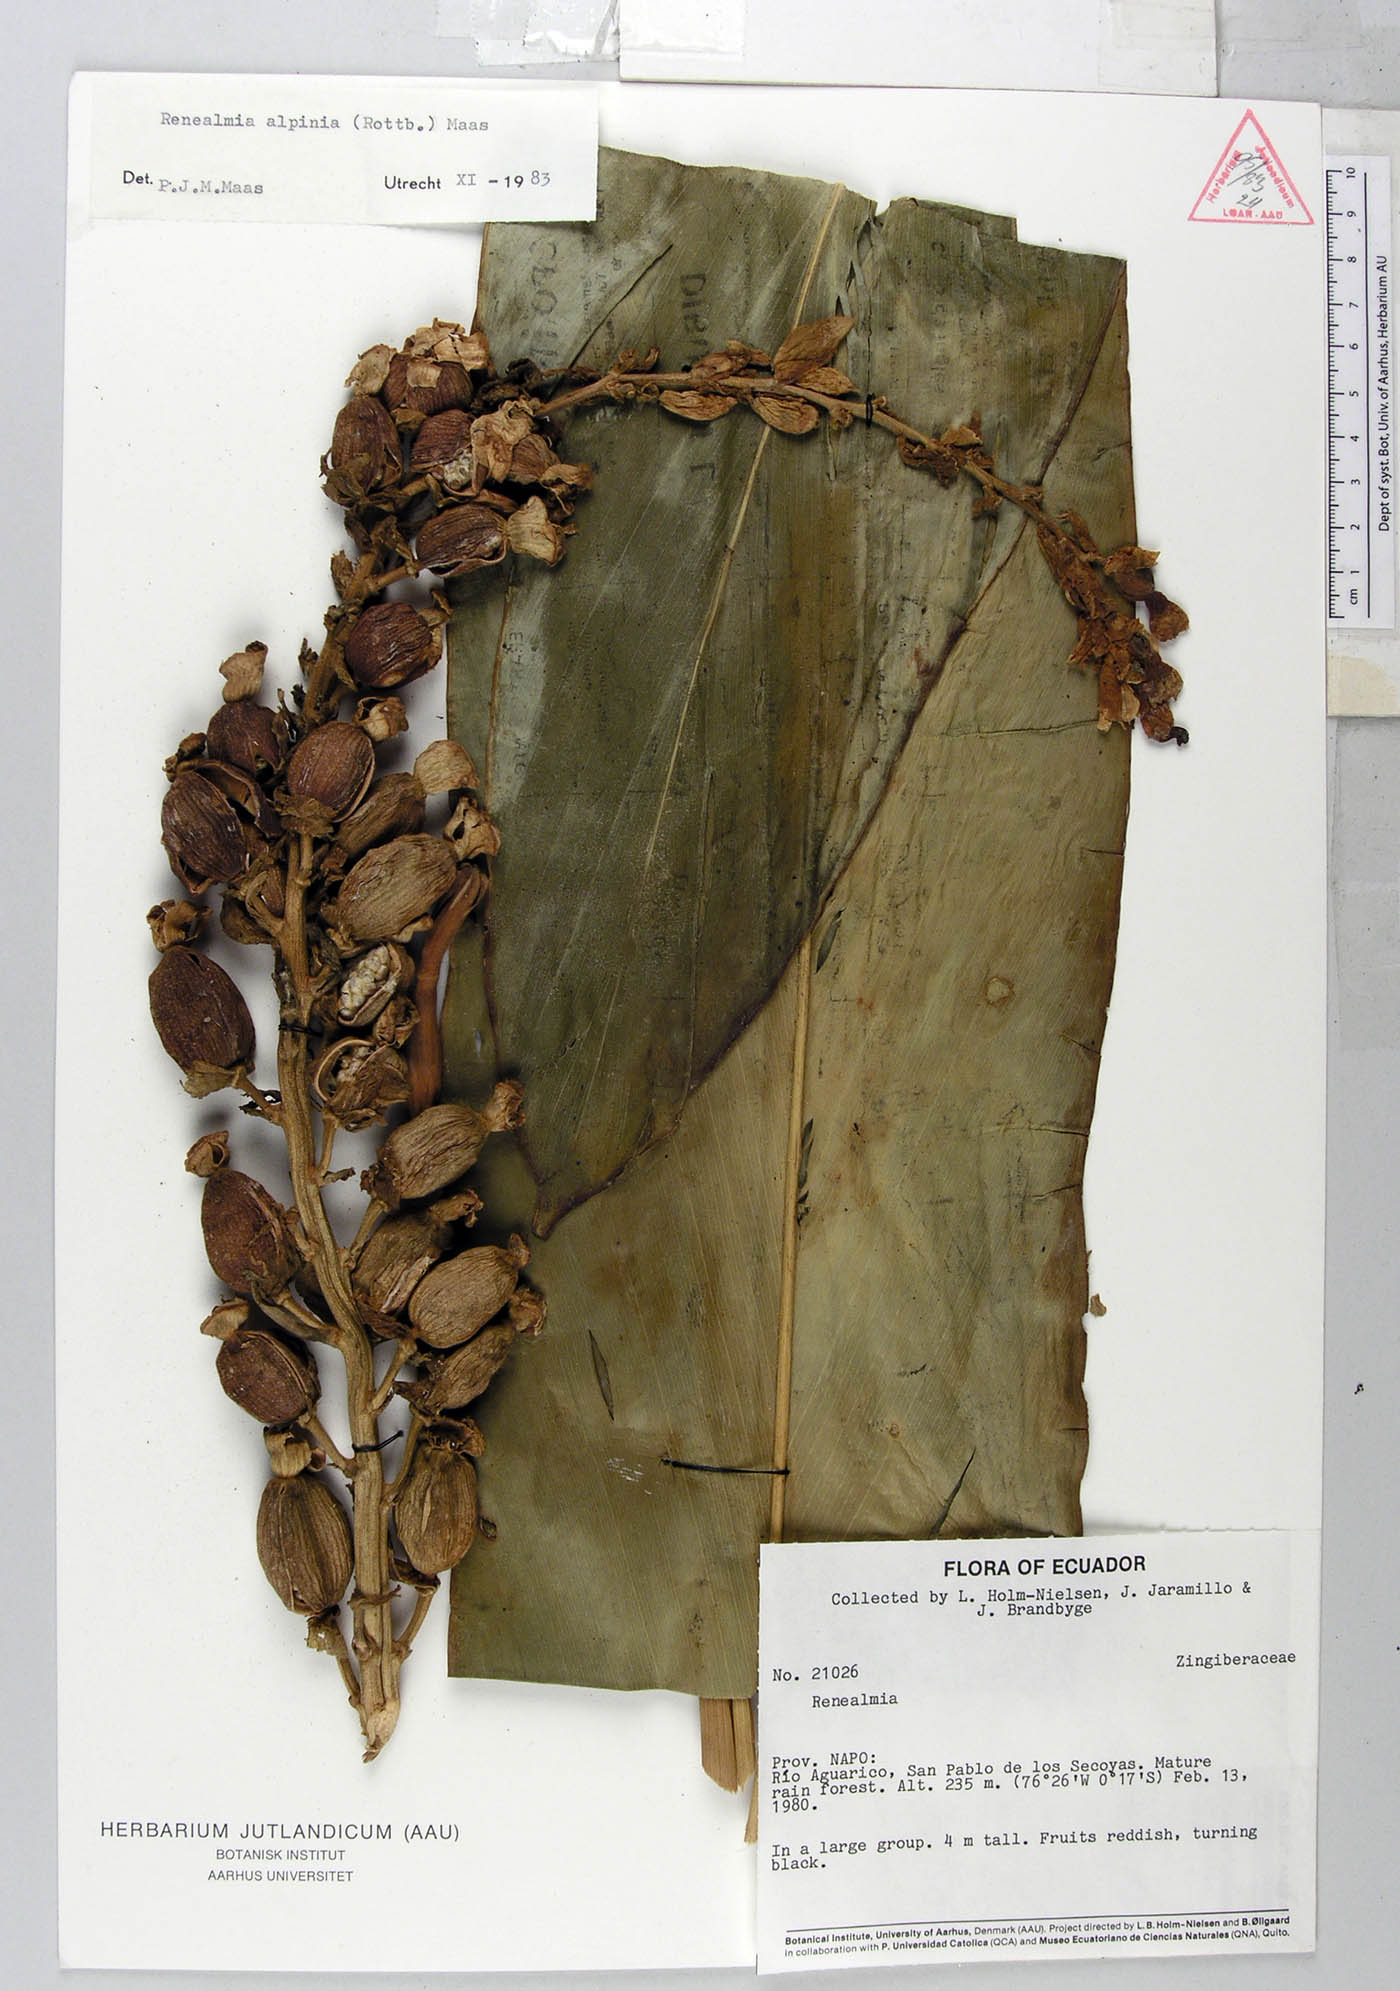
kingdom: Plantae
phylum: Tracheophyta
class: Liliopsida
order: Zingiberales
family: Zingiberaceae
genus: Renealmia
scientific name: Renealmia alpinia
